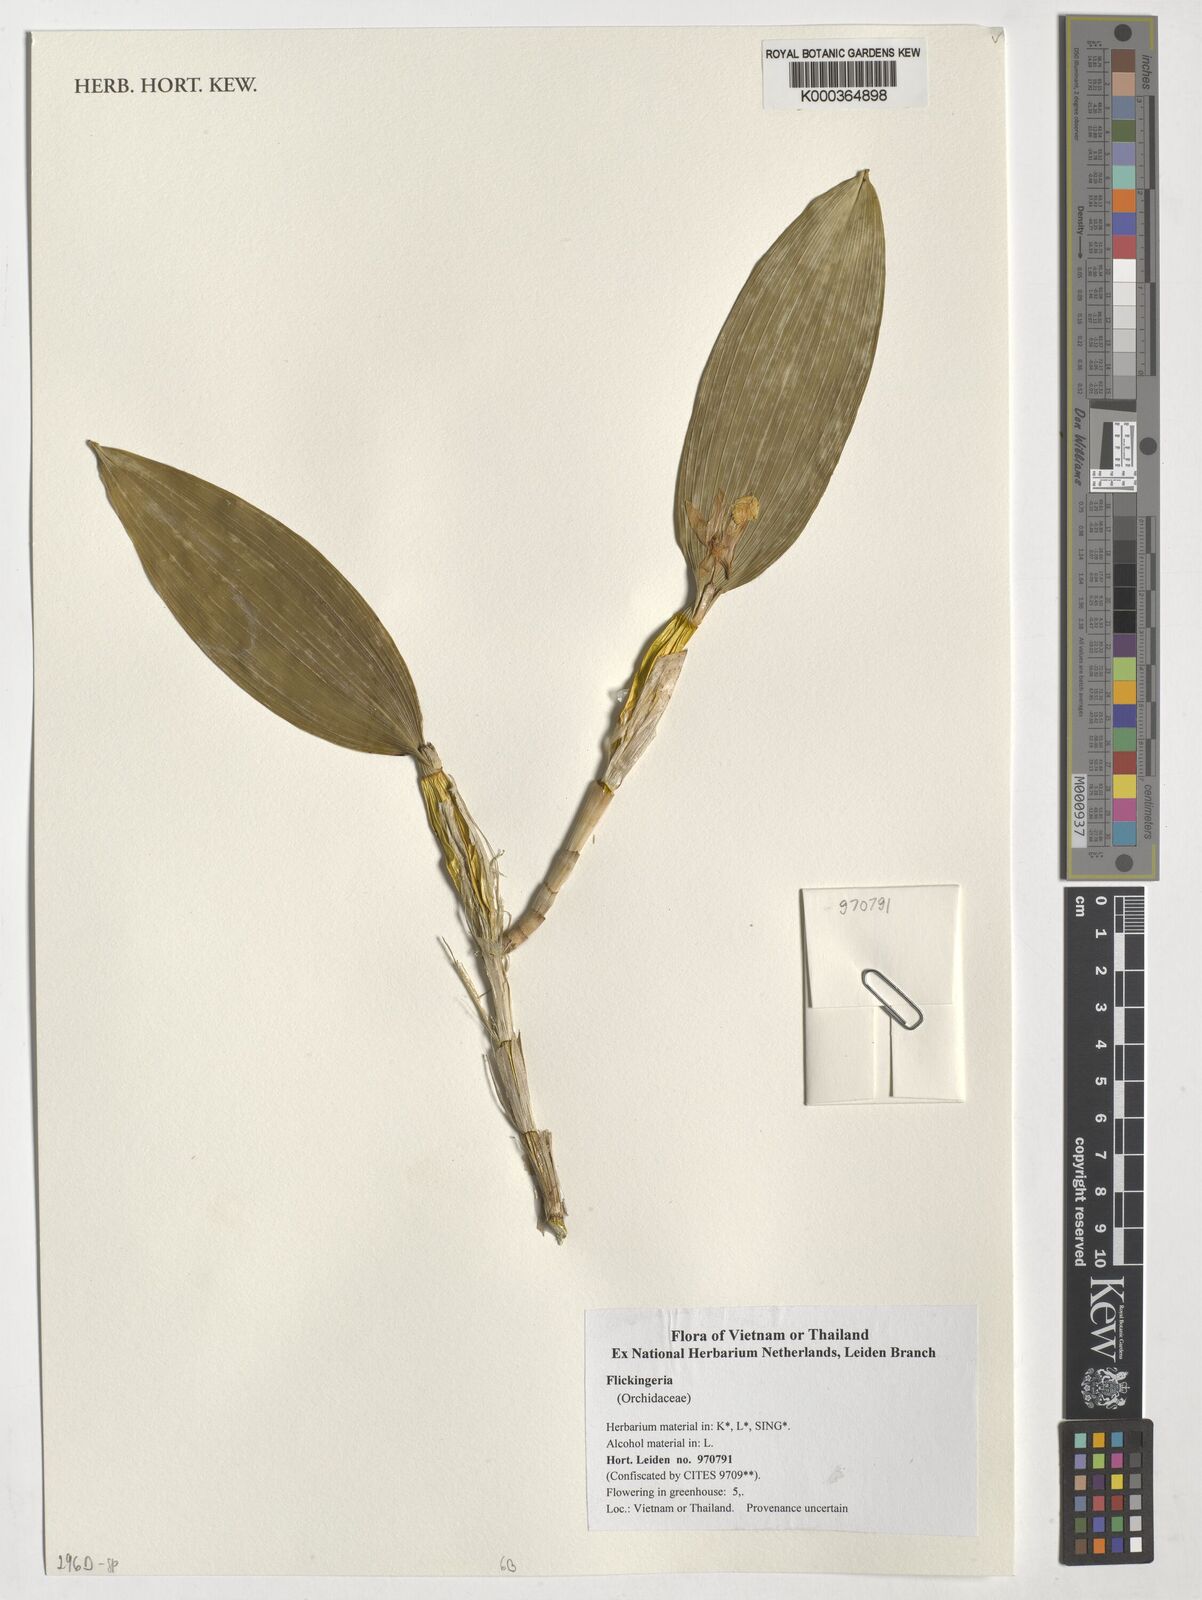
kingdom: Plantae
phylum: Tracheophyta
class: Liliopsida
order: Asparagales
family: Orchidaceae
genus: Dendrobium
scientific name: Dendrobium
